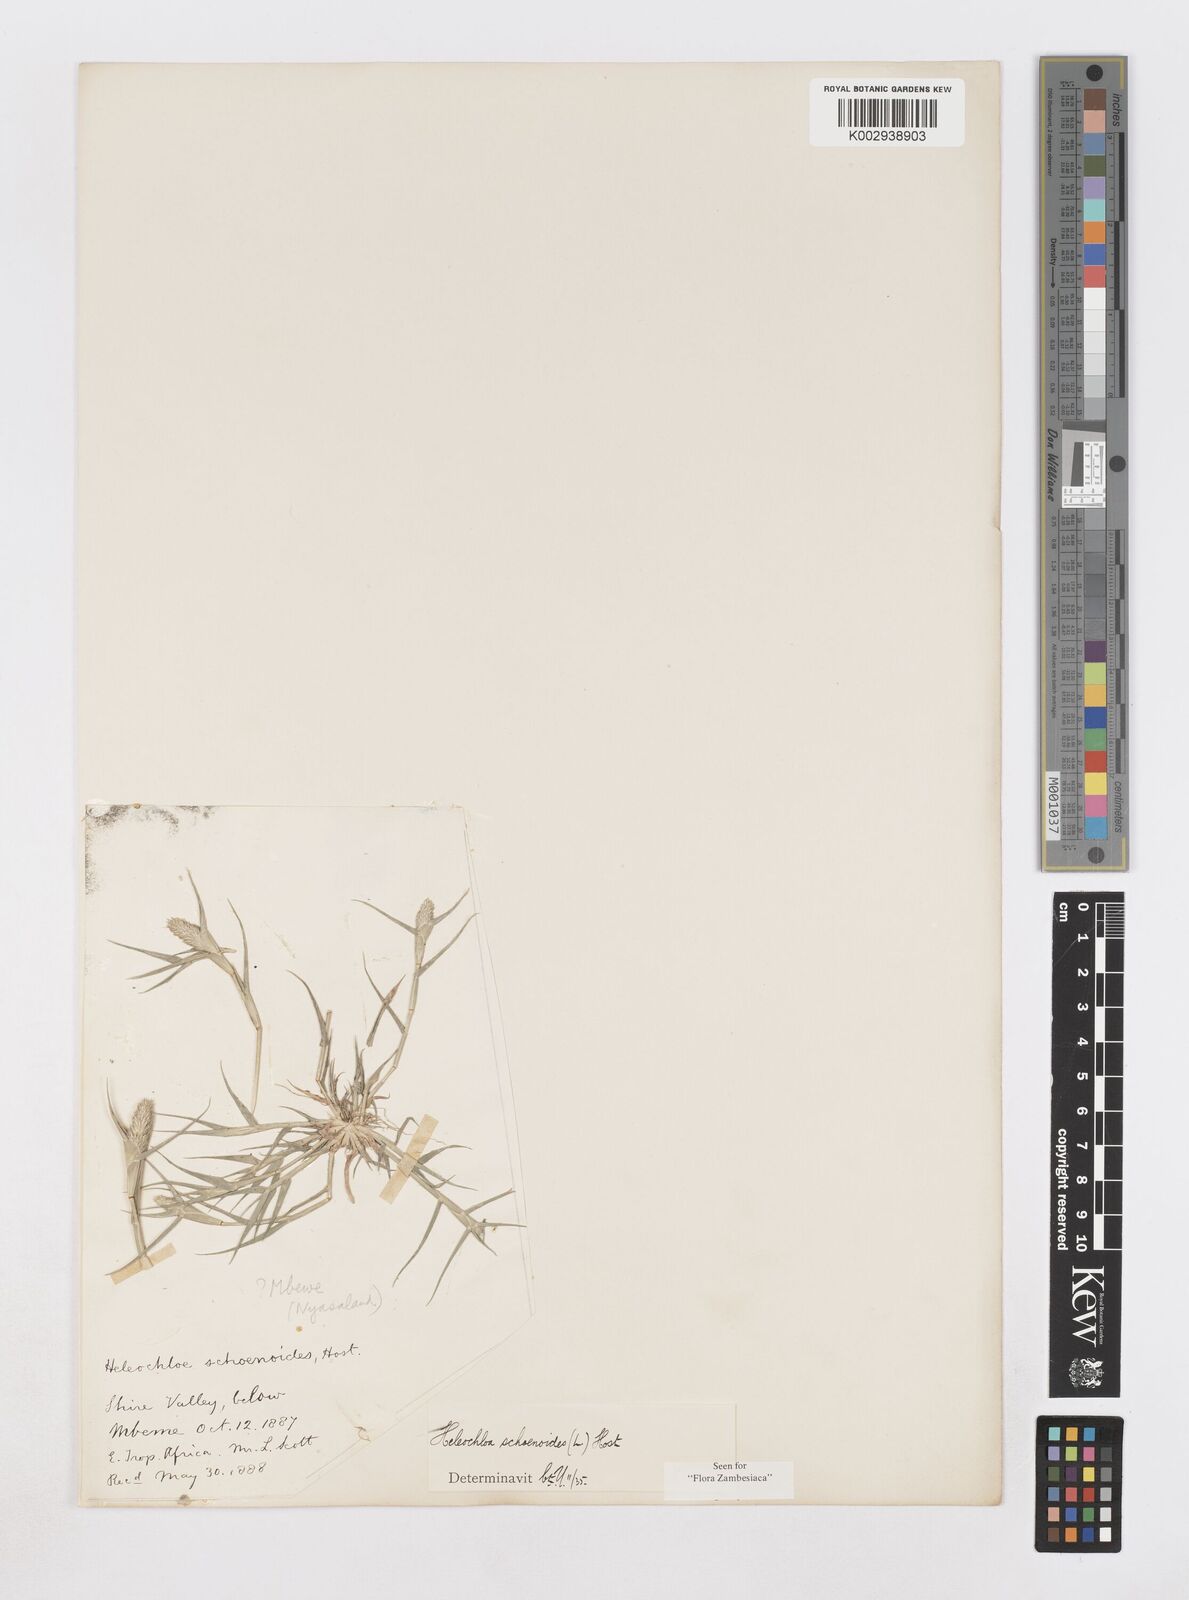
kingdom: Plantae
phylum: Tracheophyta
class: Liliopsida
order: Poales
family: Poaceae
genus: Sporobolus
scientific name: Sporobolus schoenoides
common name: Rush-like timothy
